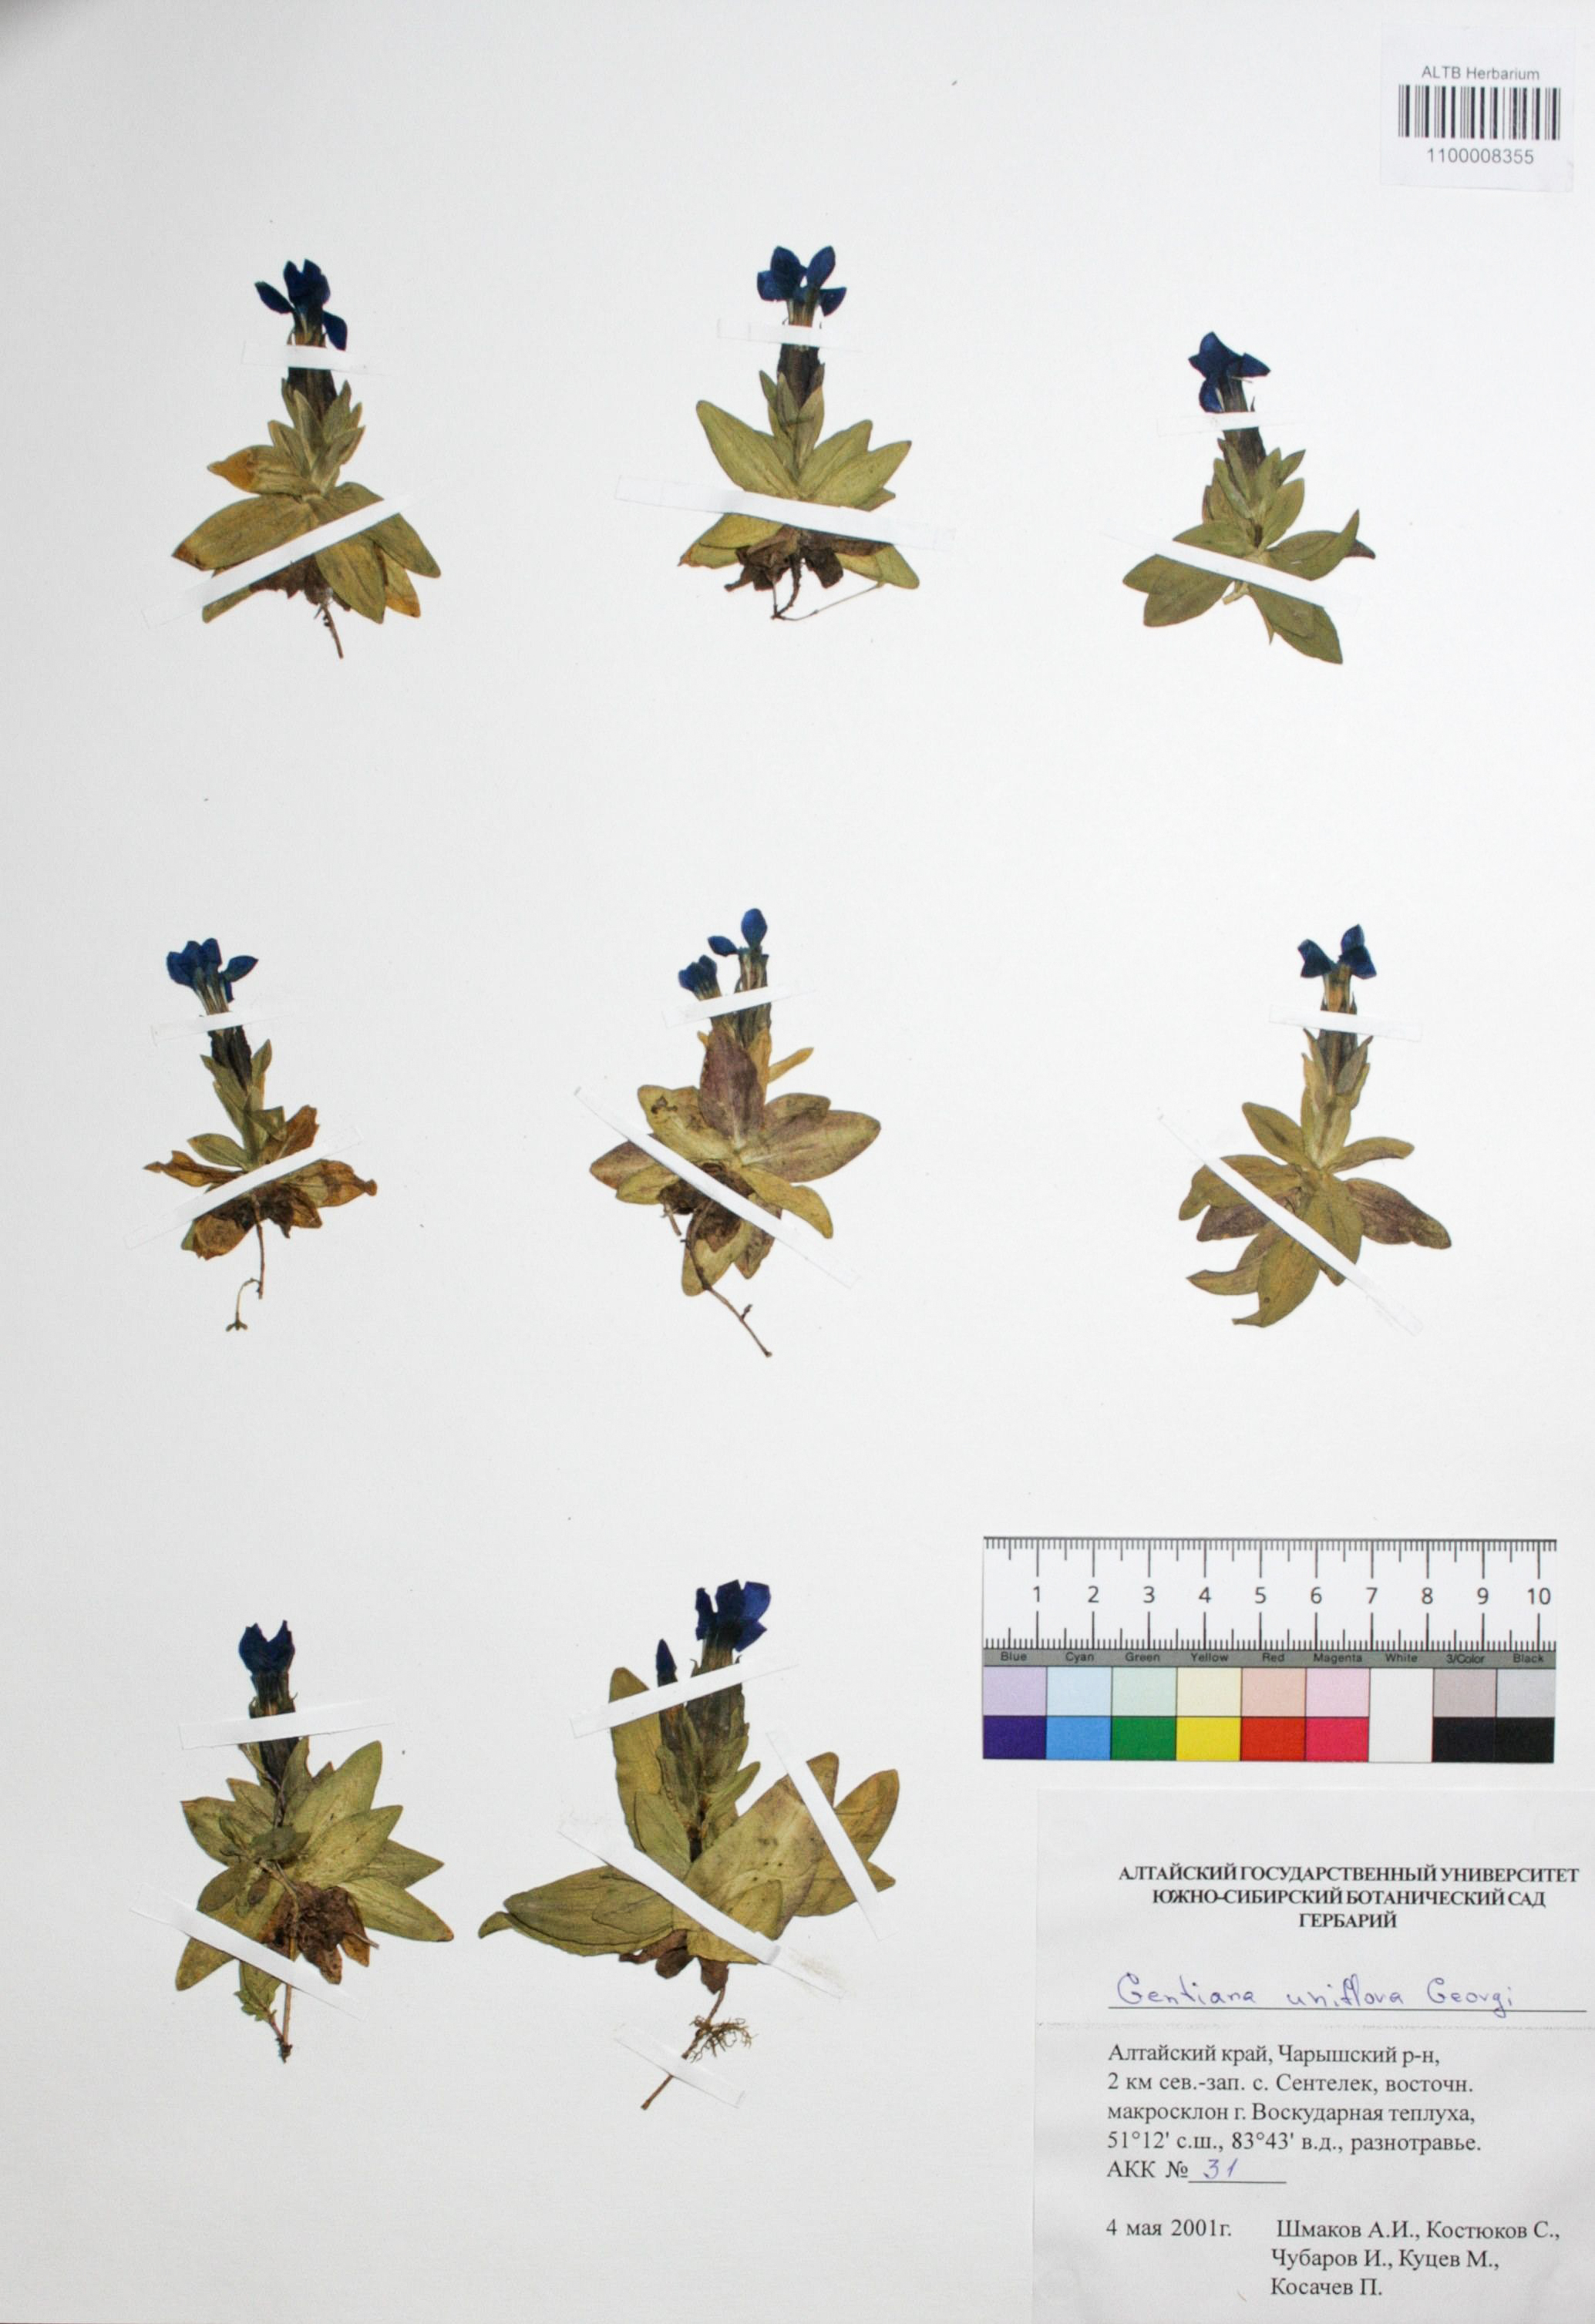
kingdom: Plantae
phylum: Tracheophyta
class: Magnoliopsida
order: Gentianales
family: Gentianaceae
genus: Gentiana
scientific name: Gentiana grandiflora
